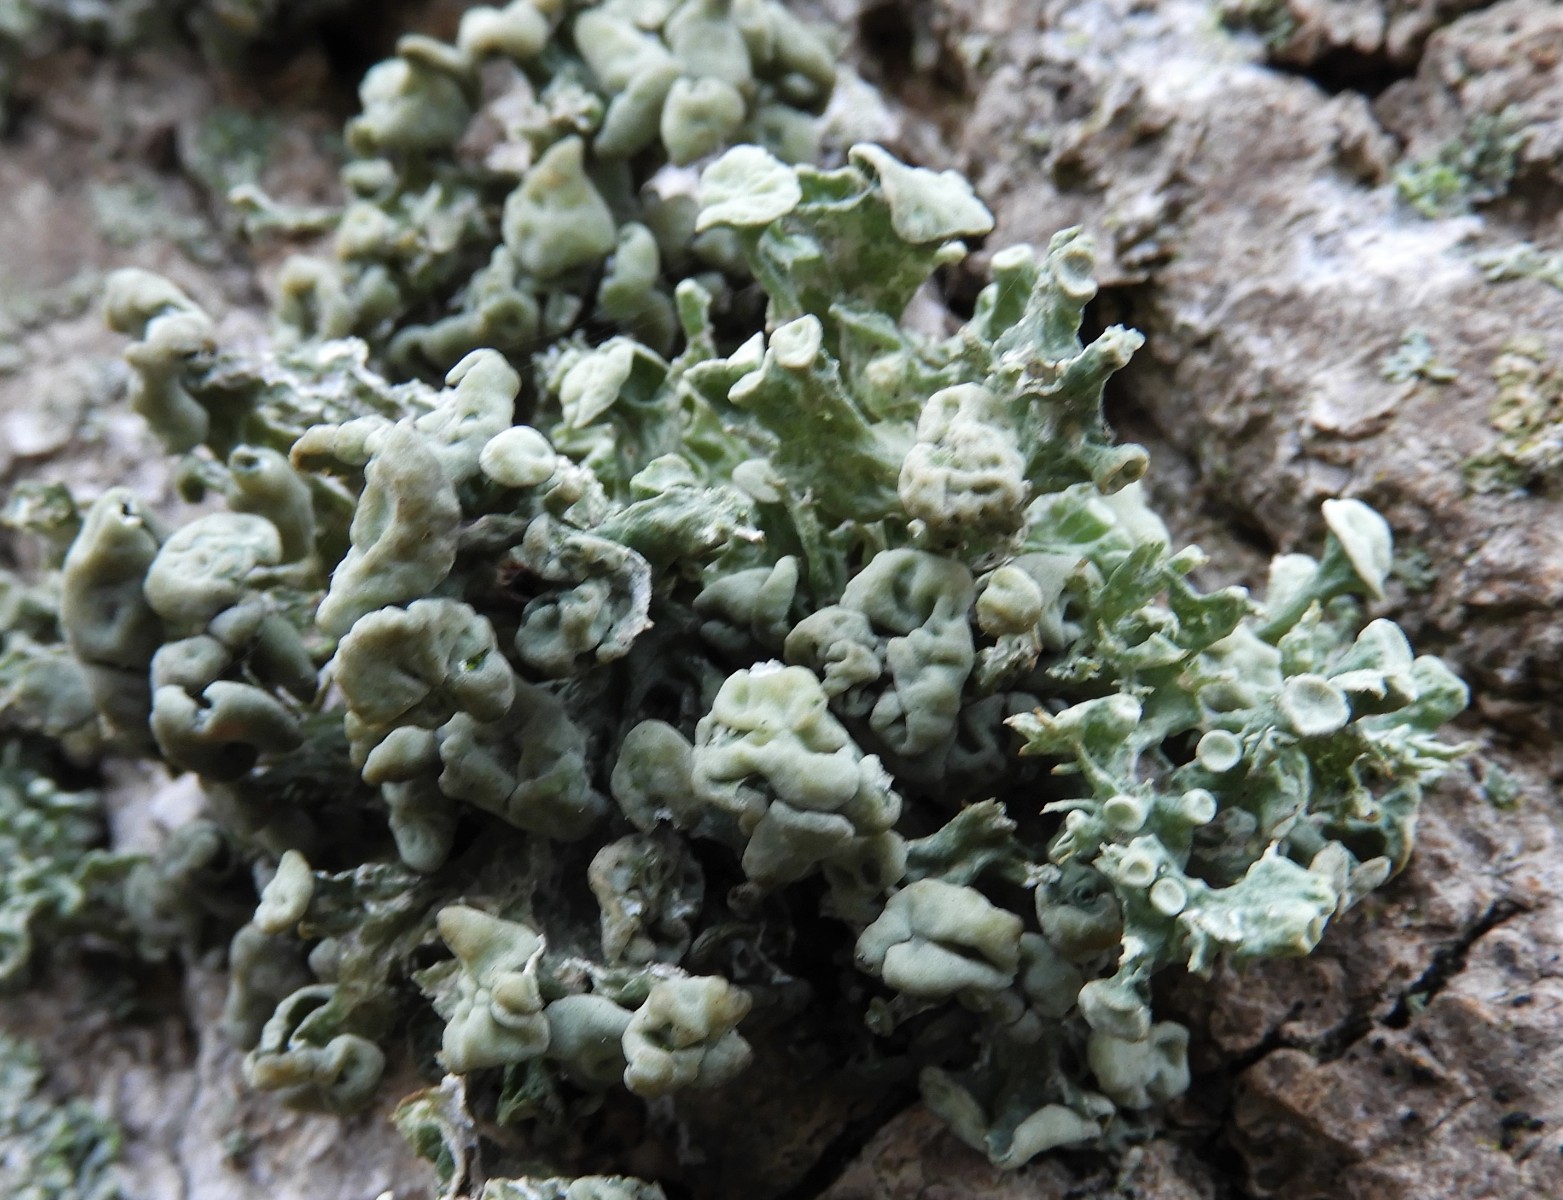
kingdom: Fungi
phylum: Ascomycota
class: Lecanoromycetes
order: Lecanorales
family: Ramalinaceae
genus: Ramalina
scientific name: Ramalina fastigiata
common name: tue-grenlav
